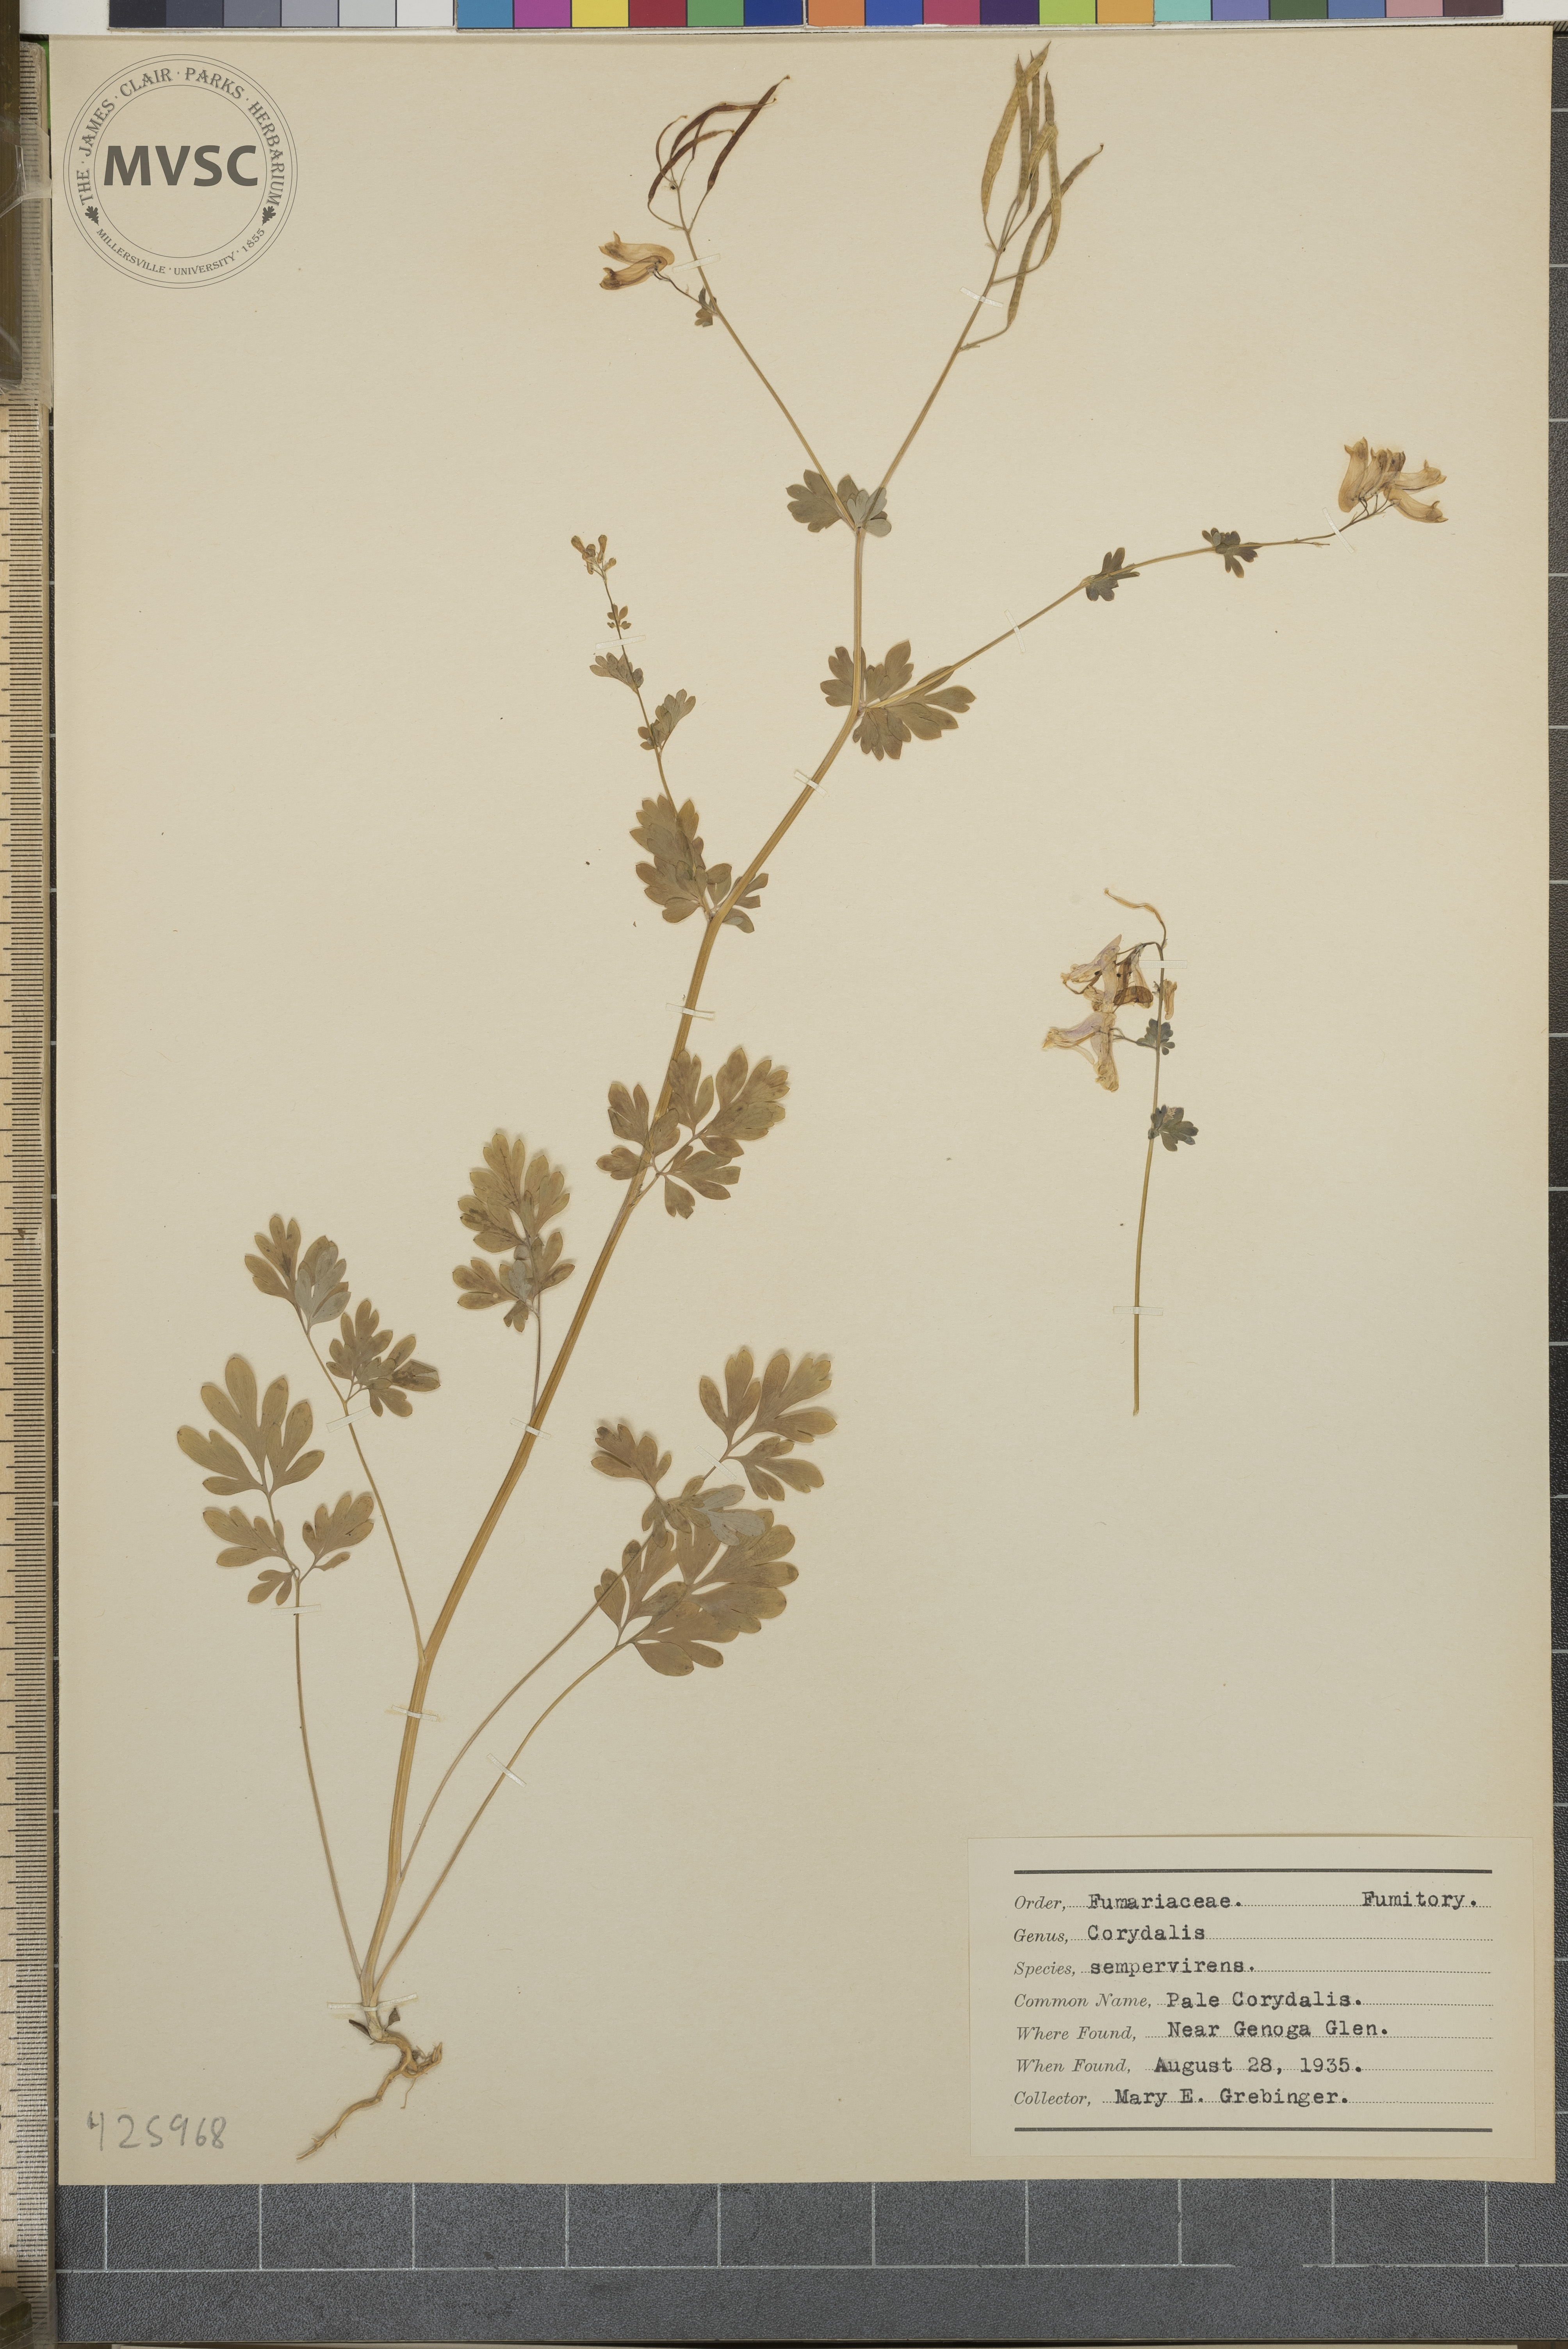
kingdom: Plantae
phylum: Tracheophyta
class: Magnoliopsida
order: Ranunculales
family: Papaveraceae
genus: Capnoides
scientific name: Capnoides sempervirens
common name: Pale Corydalis
